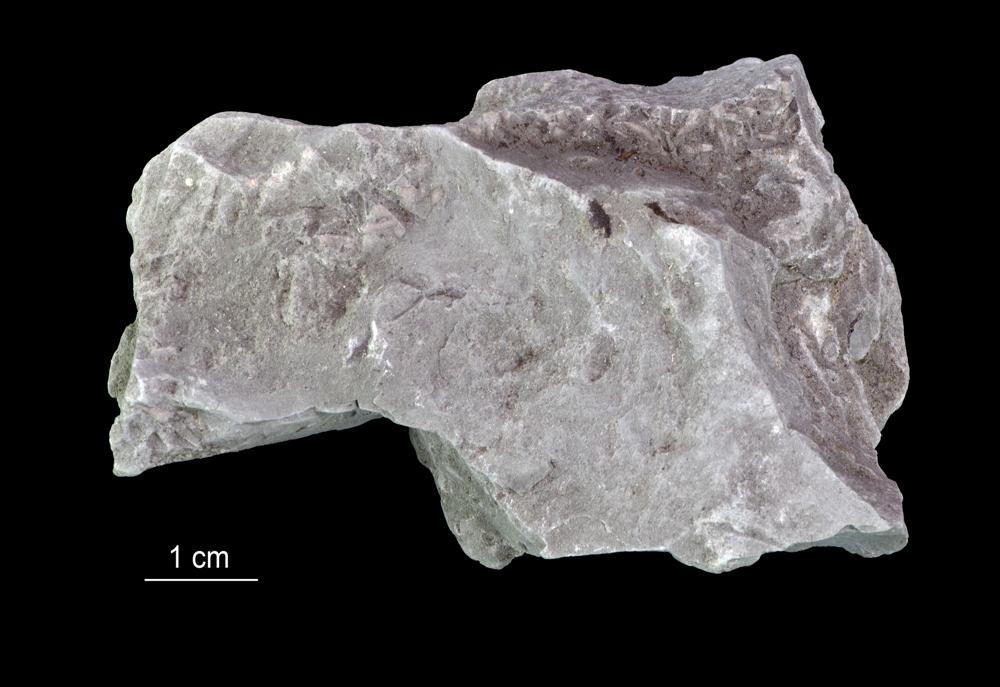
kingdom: Animalia
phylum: Annelida
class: Polychaeta
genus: Volborthella
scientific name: Volborthella tenuis
